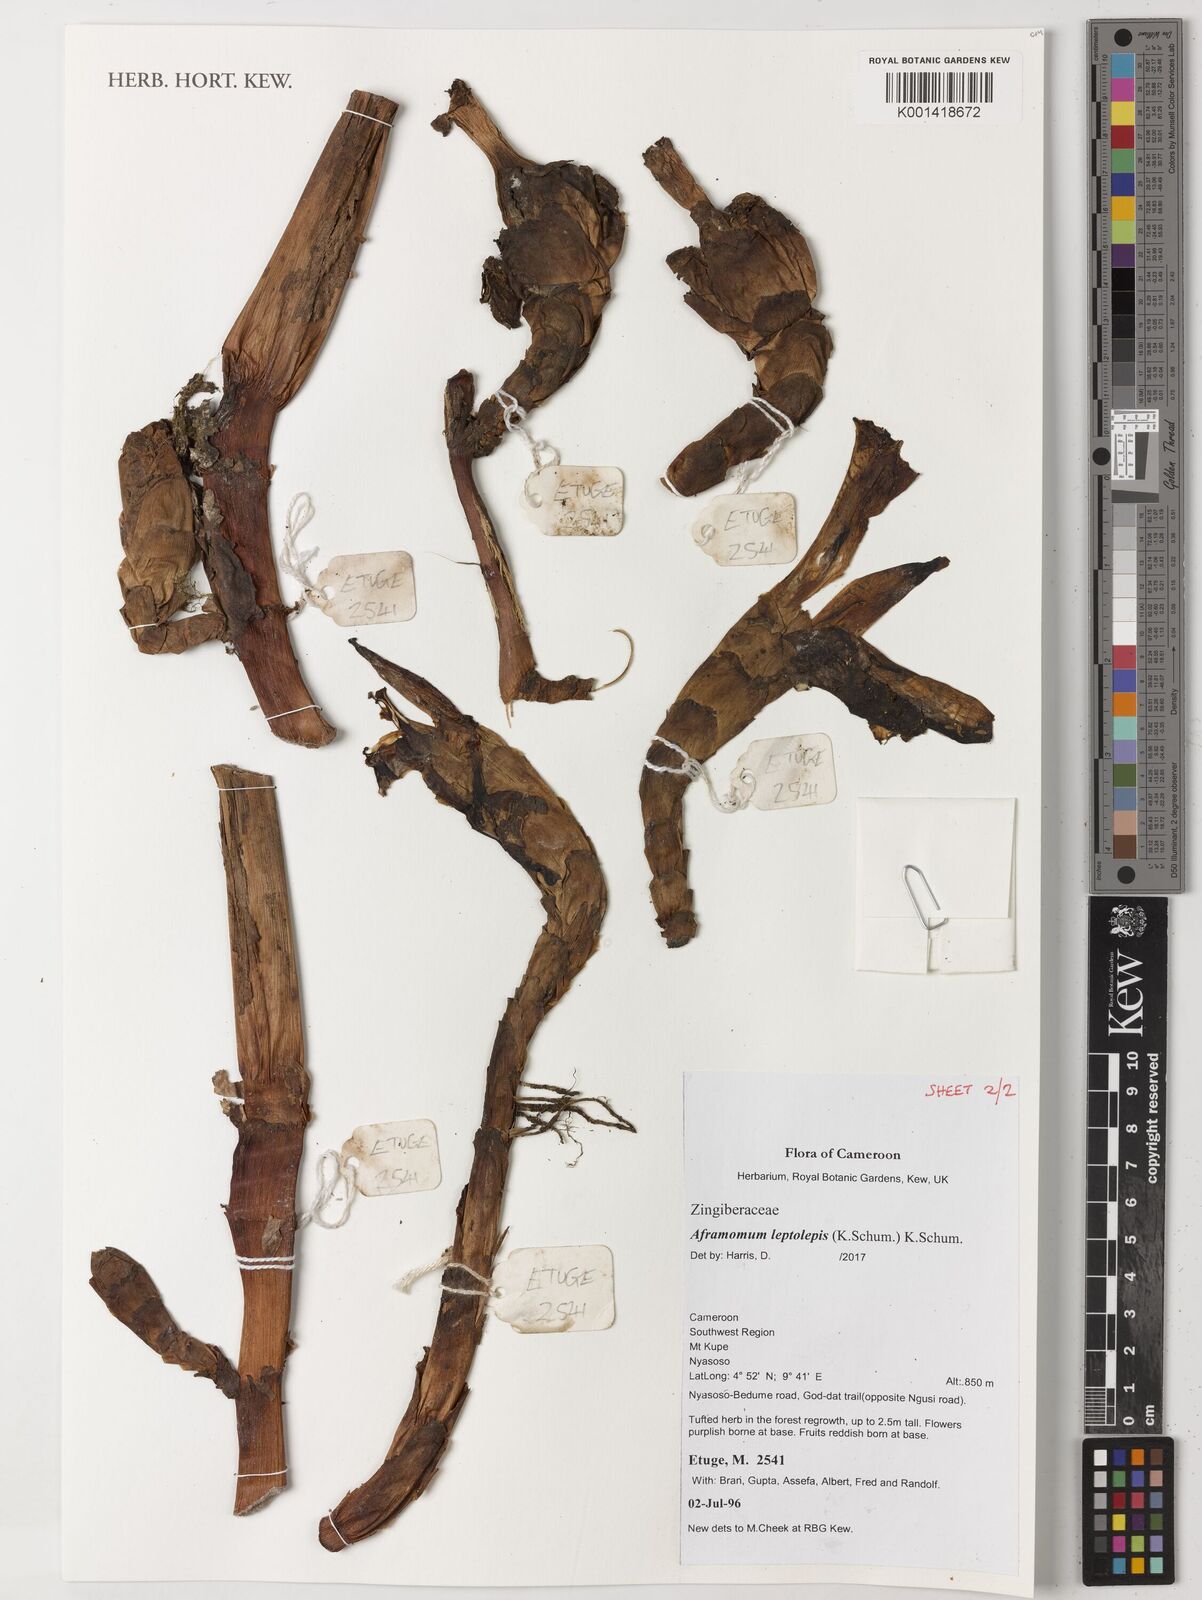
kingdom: Plantae
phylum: Tracheophyta
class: Liliopsida
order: Zingiberales
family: Zingiberaceae
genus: Aframomum
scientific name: Aframomum leptolepis
